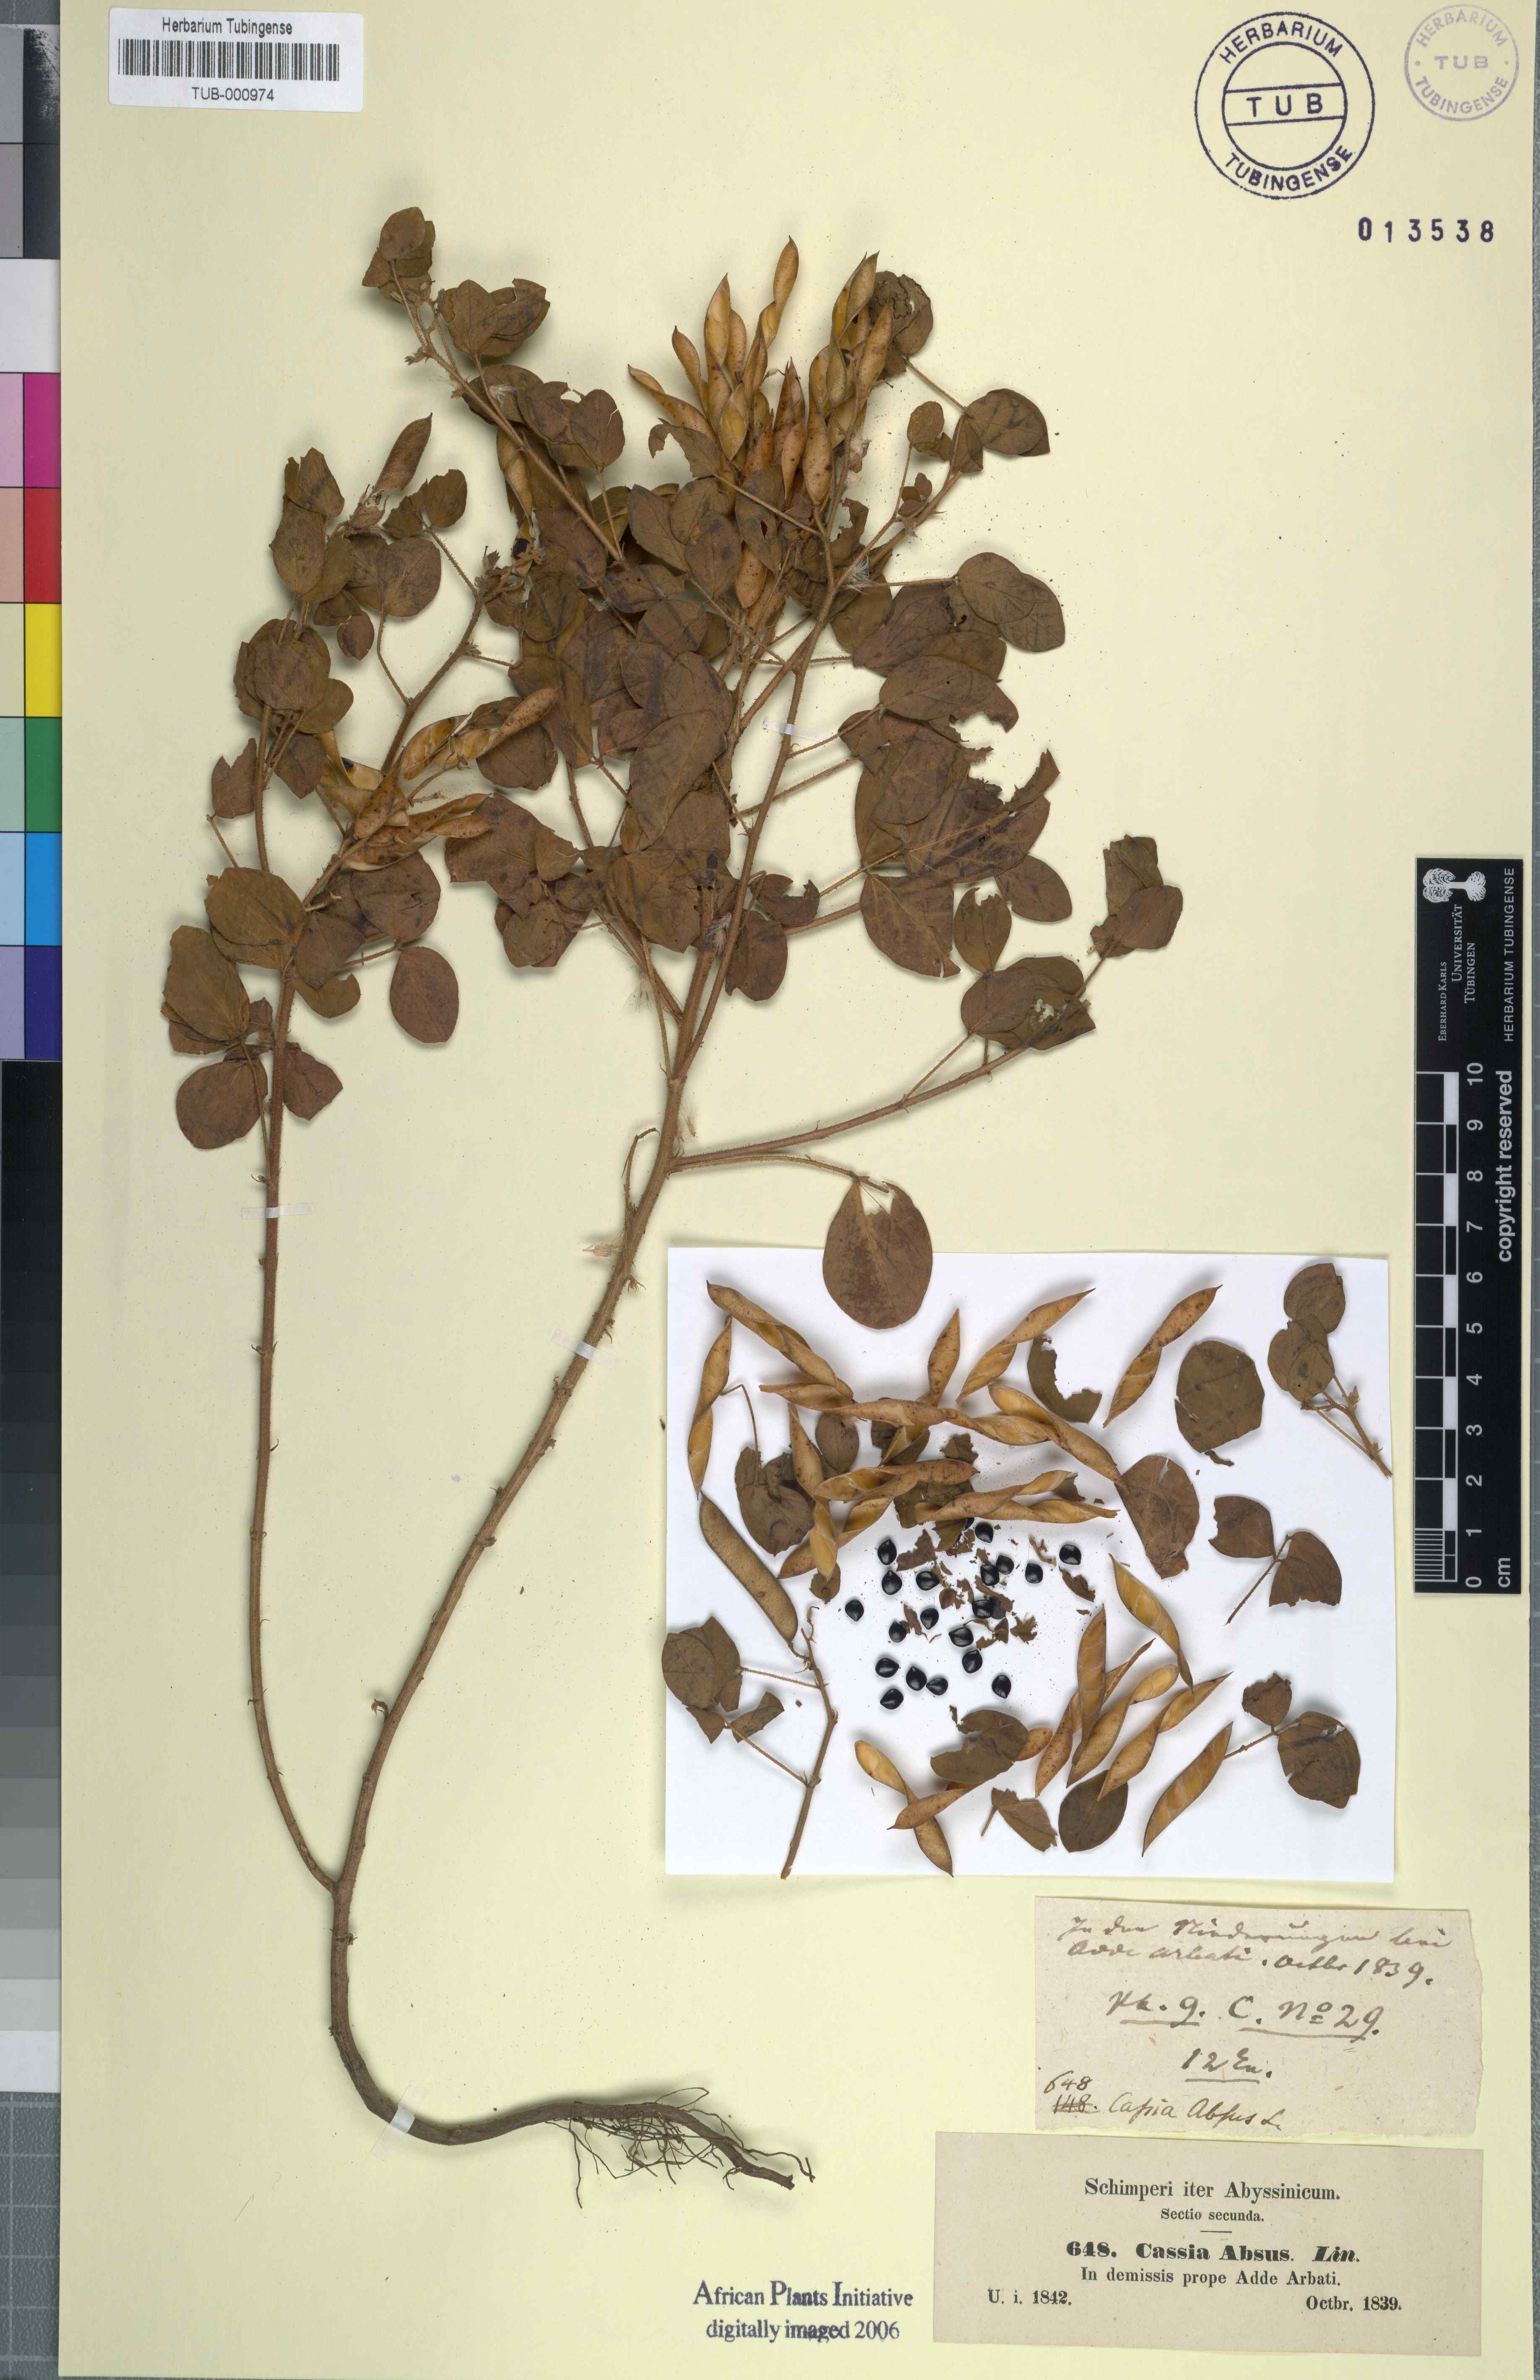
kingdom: Plantae
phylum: Tracheophyta
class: Magnoliopsida
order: Fabales
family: Fabaceae
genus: Chamaecrista
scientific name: Chamaecrista absus
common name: Tropical sensitive pea
